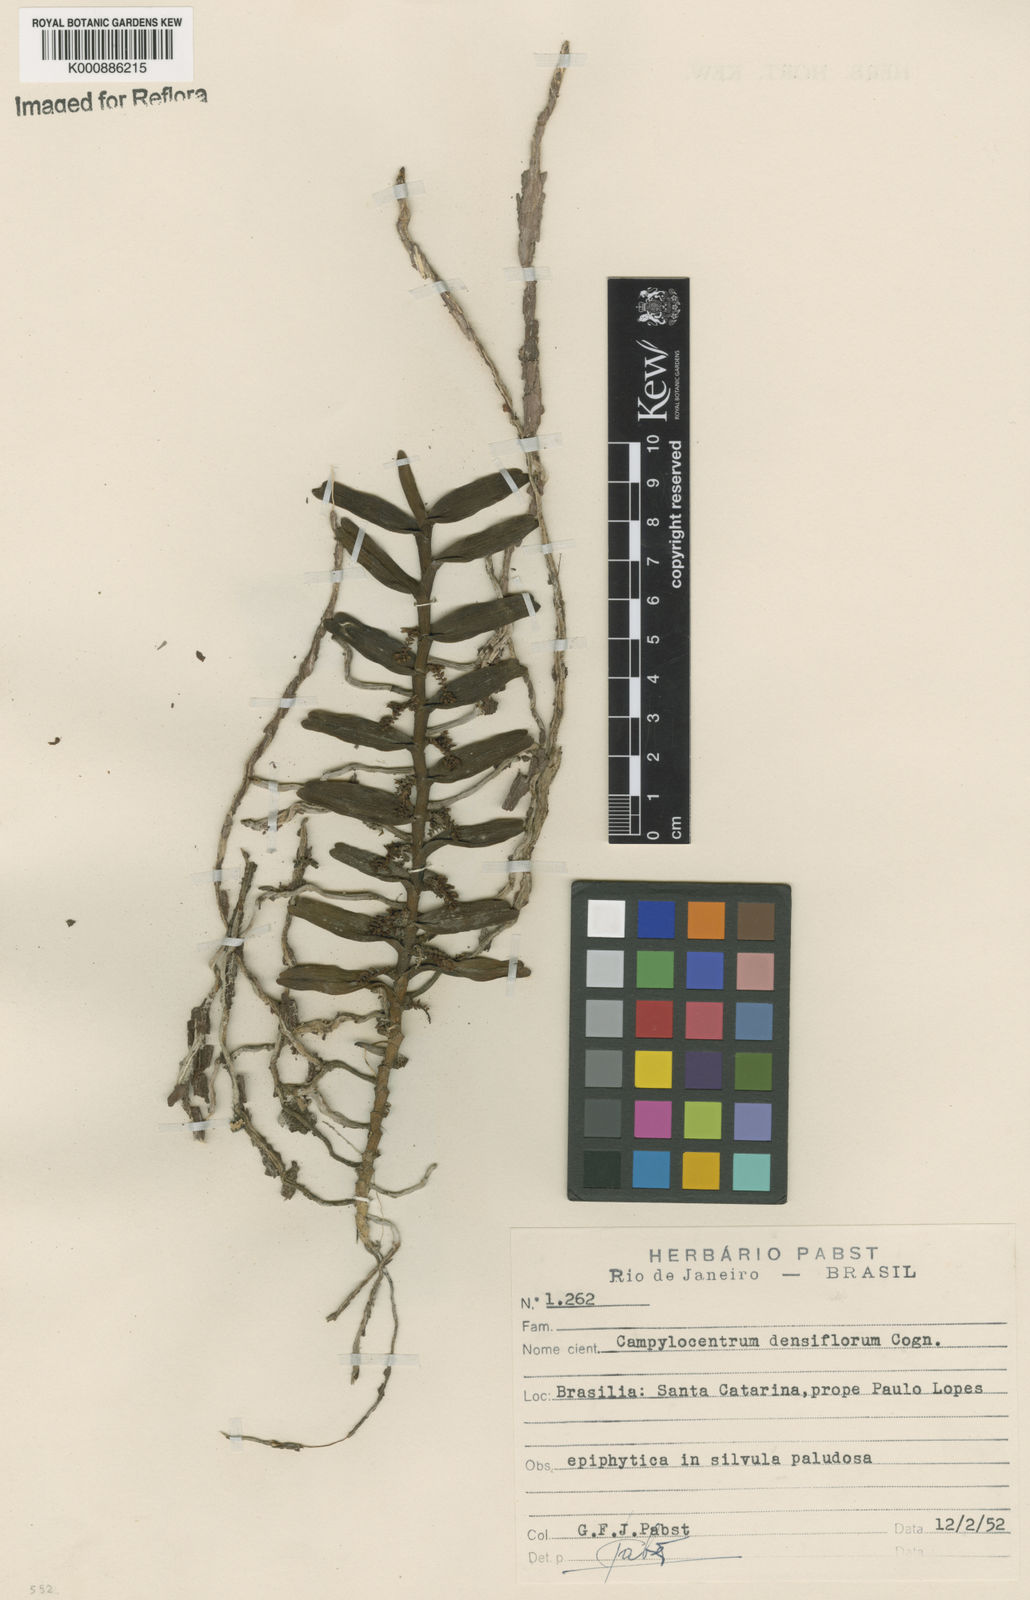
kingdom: Plantae
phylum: Tracheophyta
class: Liliopsida
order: Asparagales
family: Orchidaceae
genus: Campylocentrum
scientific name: Campylocentrum densiflorum
